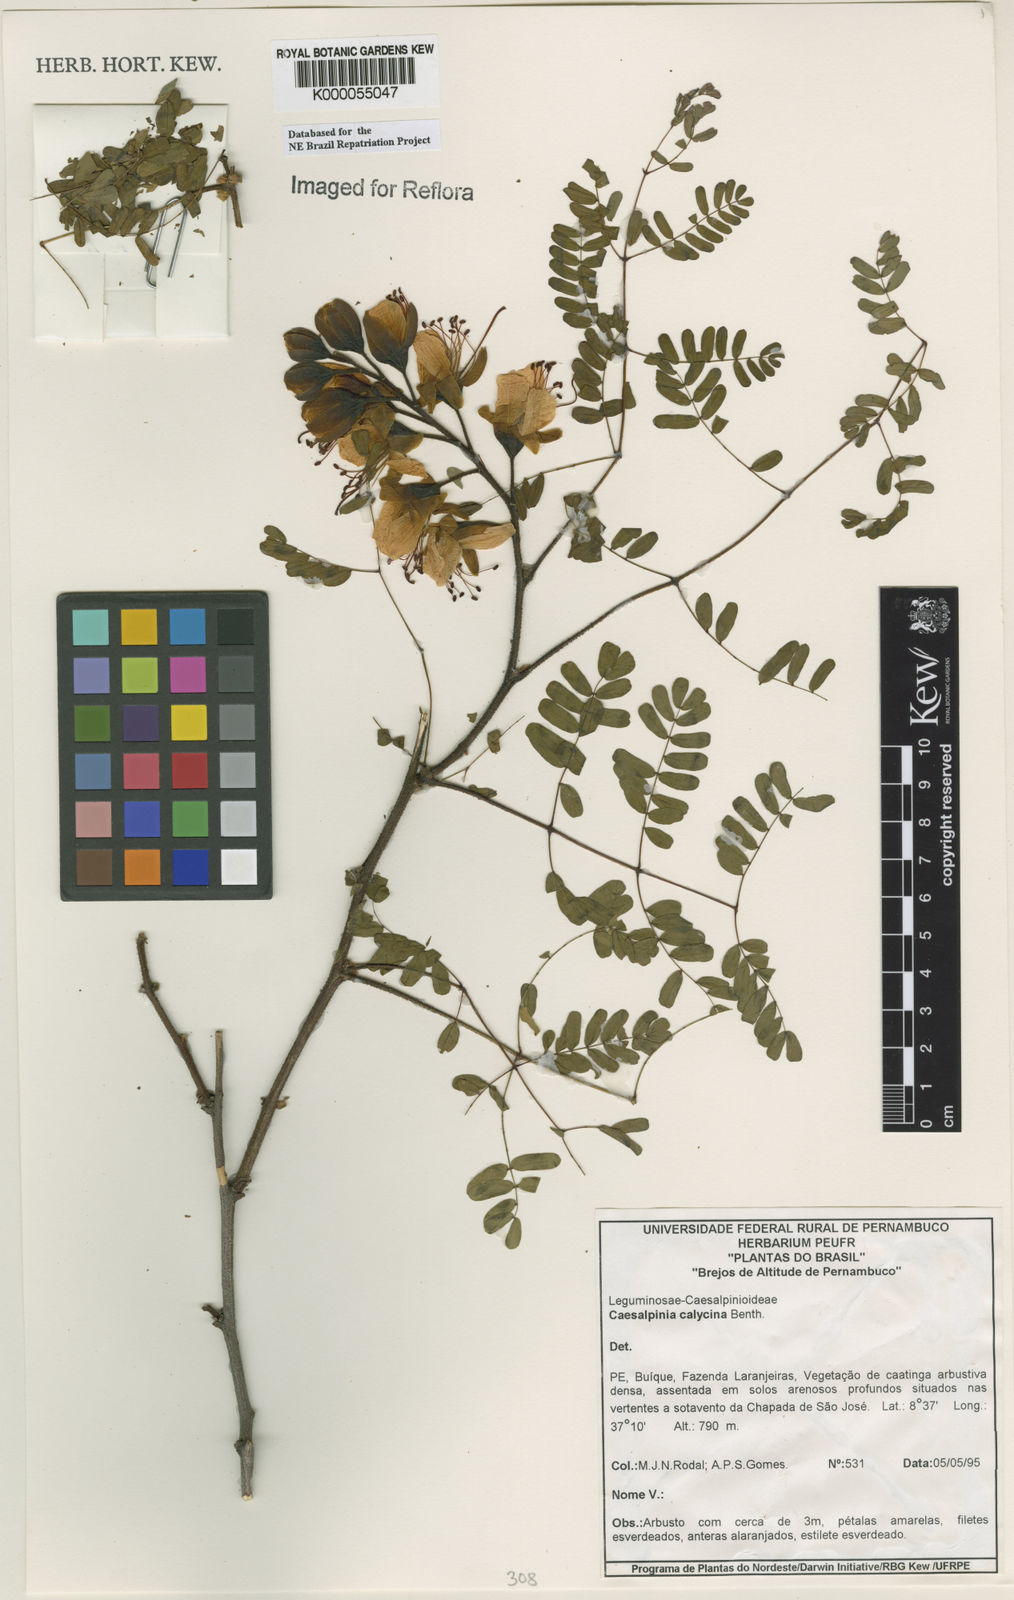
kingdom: Plantae
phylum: Tracheophyta
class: Magnoliopsida
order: Fabales
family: Fabaceae
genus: Erythrostemon
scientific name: Erythrostemon calycinus
